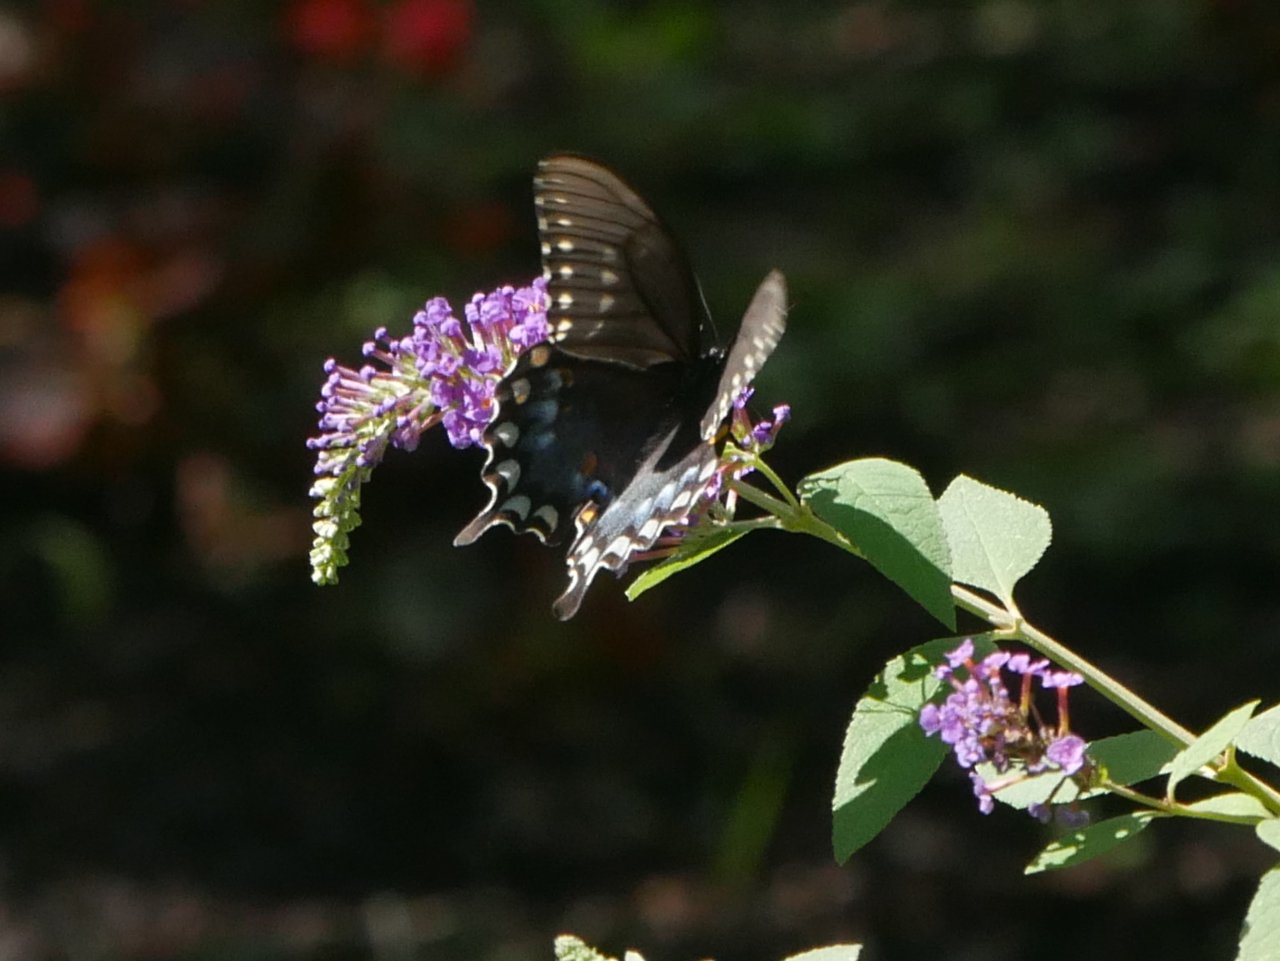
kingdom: Animalia
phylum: Arthropoda
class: Insecta
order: Lepidoptera
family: Papilionidae
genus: Pterourus
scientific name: Pterourus troilus
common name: Spicebush Swallowtail
